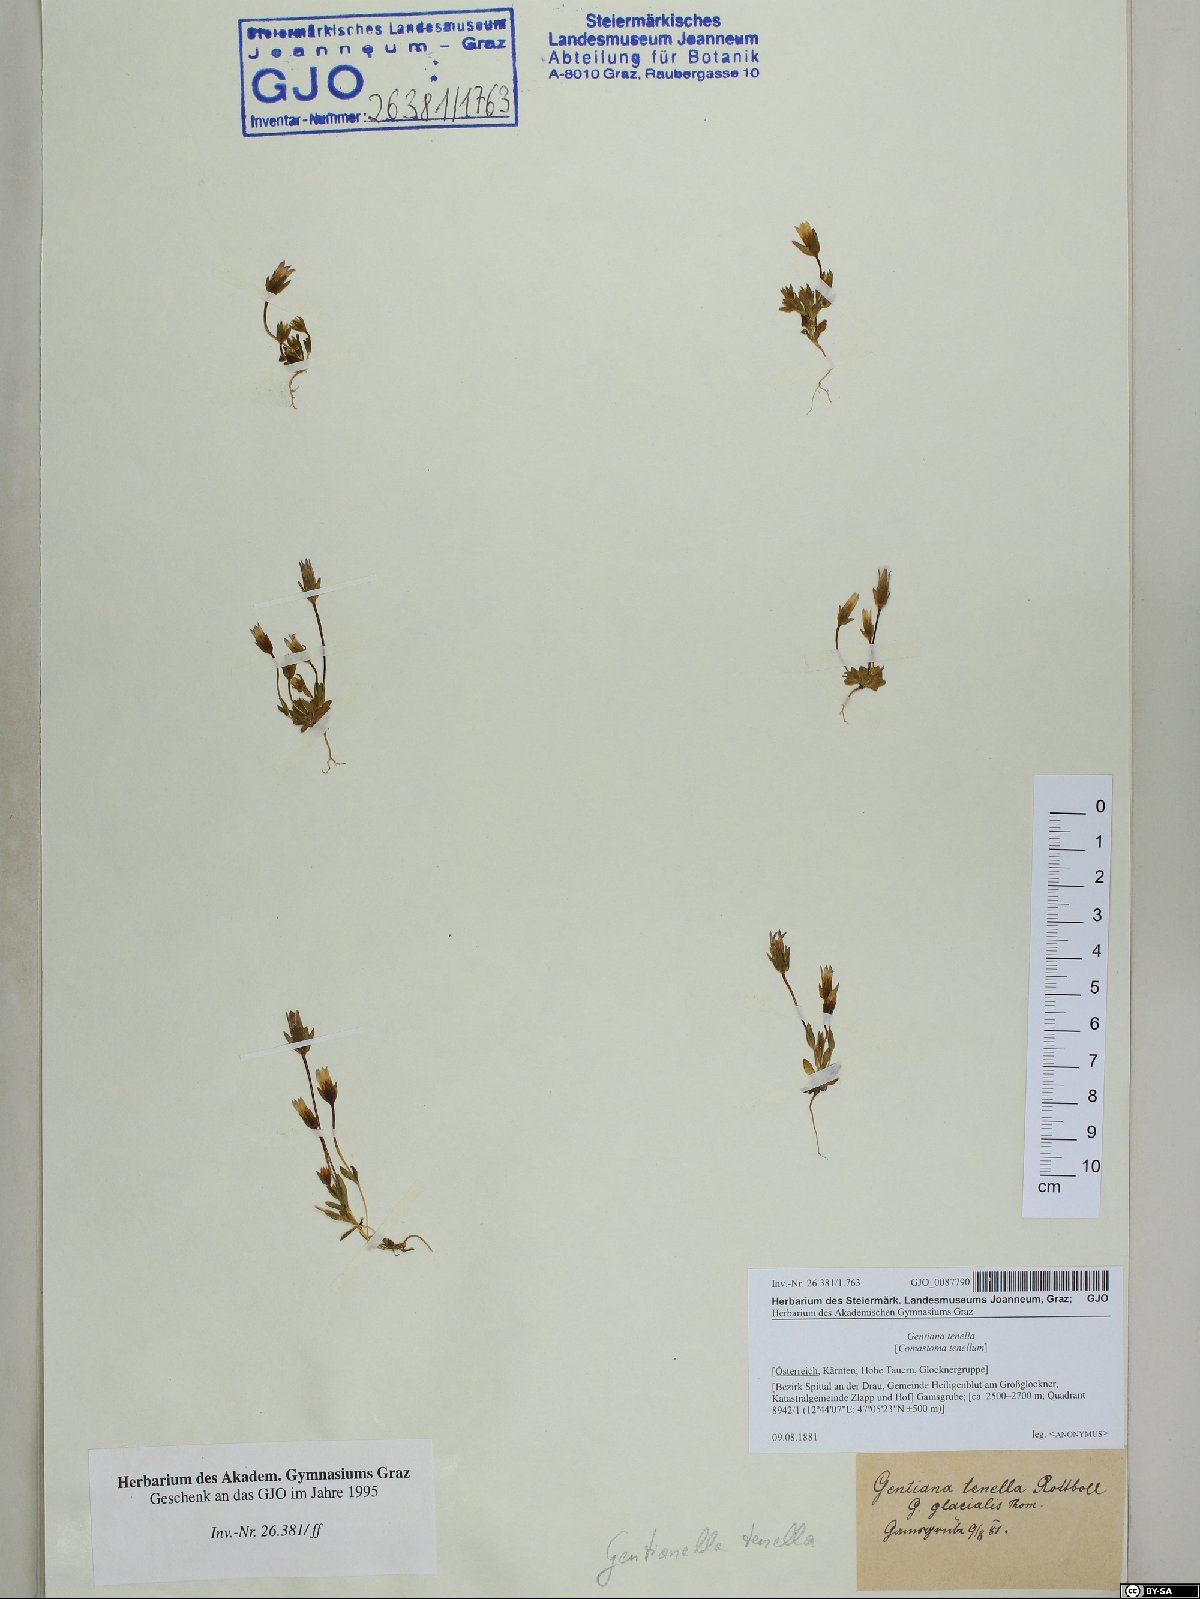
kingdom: Plantae
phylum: Tracheophyta
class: Magnoliopsida
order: Gentianales
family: Gentianaceae
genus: Comastoma
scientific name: Comastoma tenellum
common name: Dane's dwarf gentian
